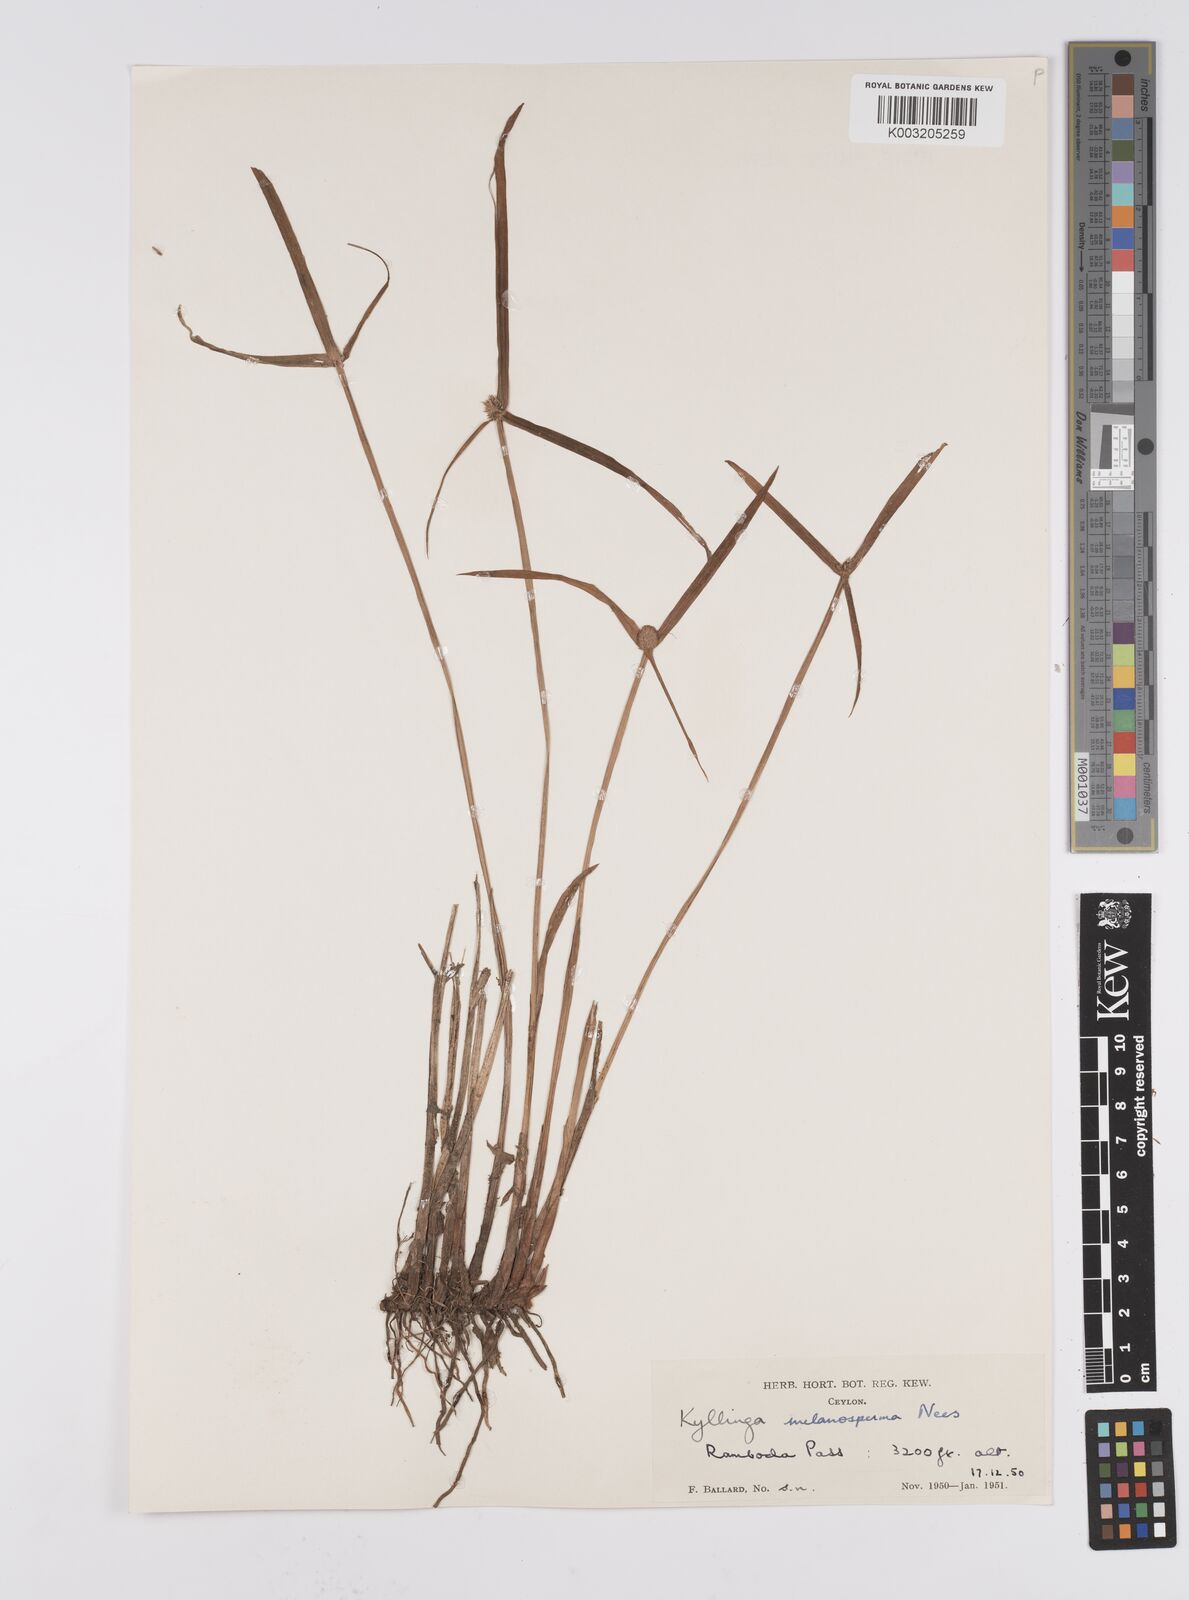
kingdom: Plantae
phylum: Tracheophyta
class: Liliopsida
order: Poales
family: Cyperaceae
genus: Cyperus
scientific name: Cyperus melanospermus
